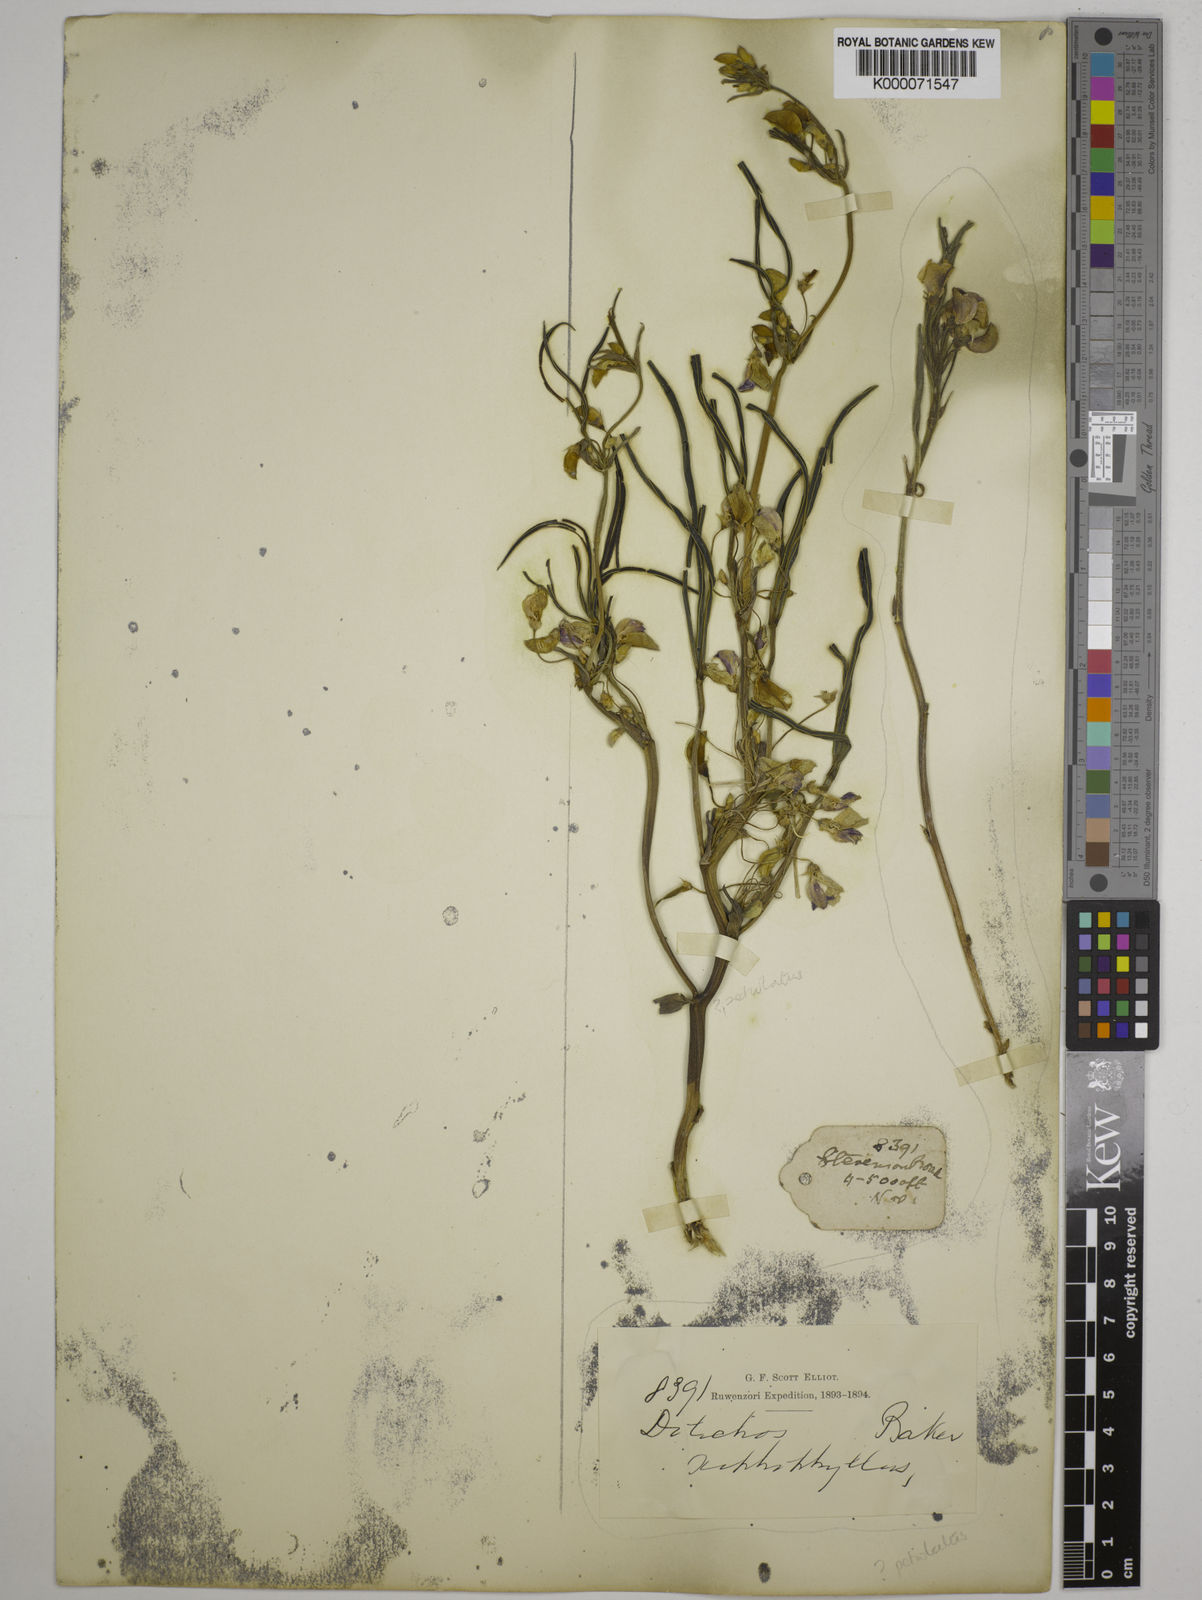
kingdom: Plantae
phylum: Tracheophyta
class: Magnoliopsida
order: Fabales
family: Fabaceae
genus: Dolichos
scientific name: Dolichos petiolatus
